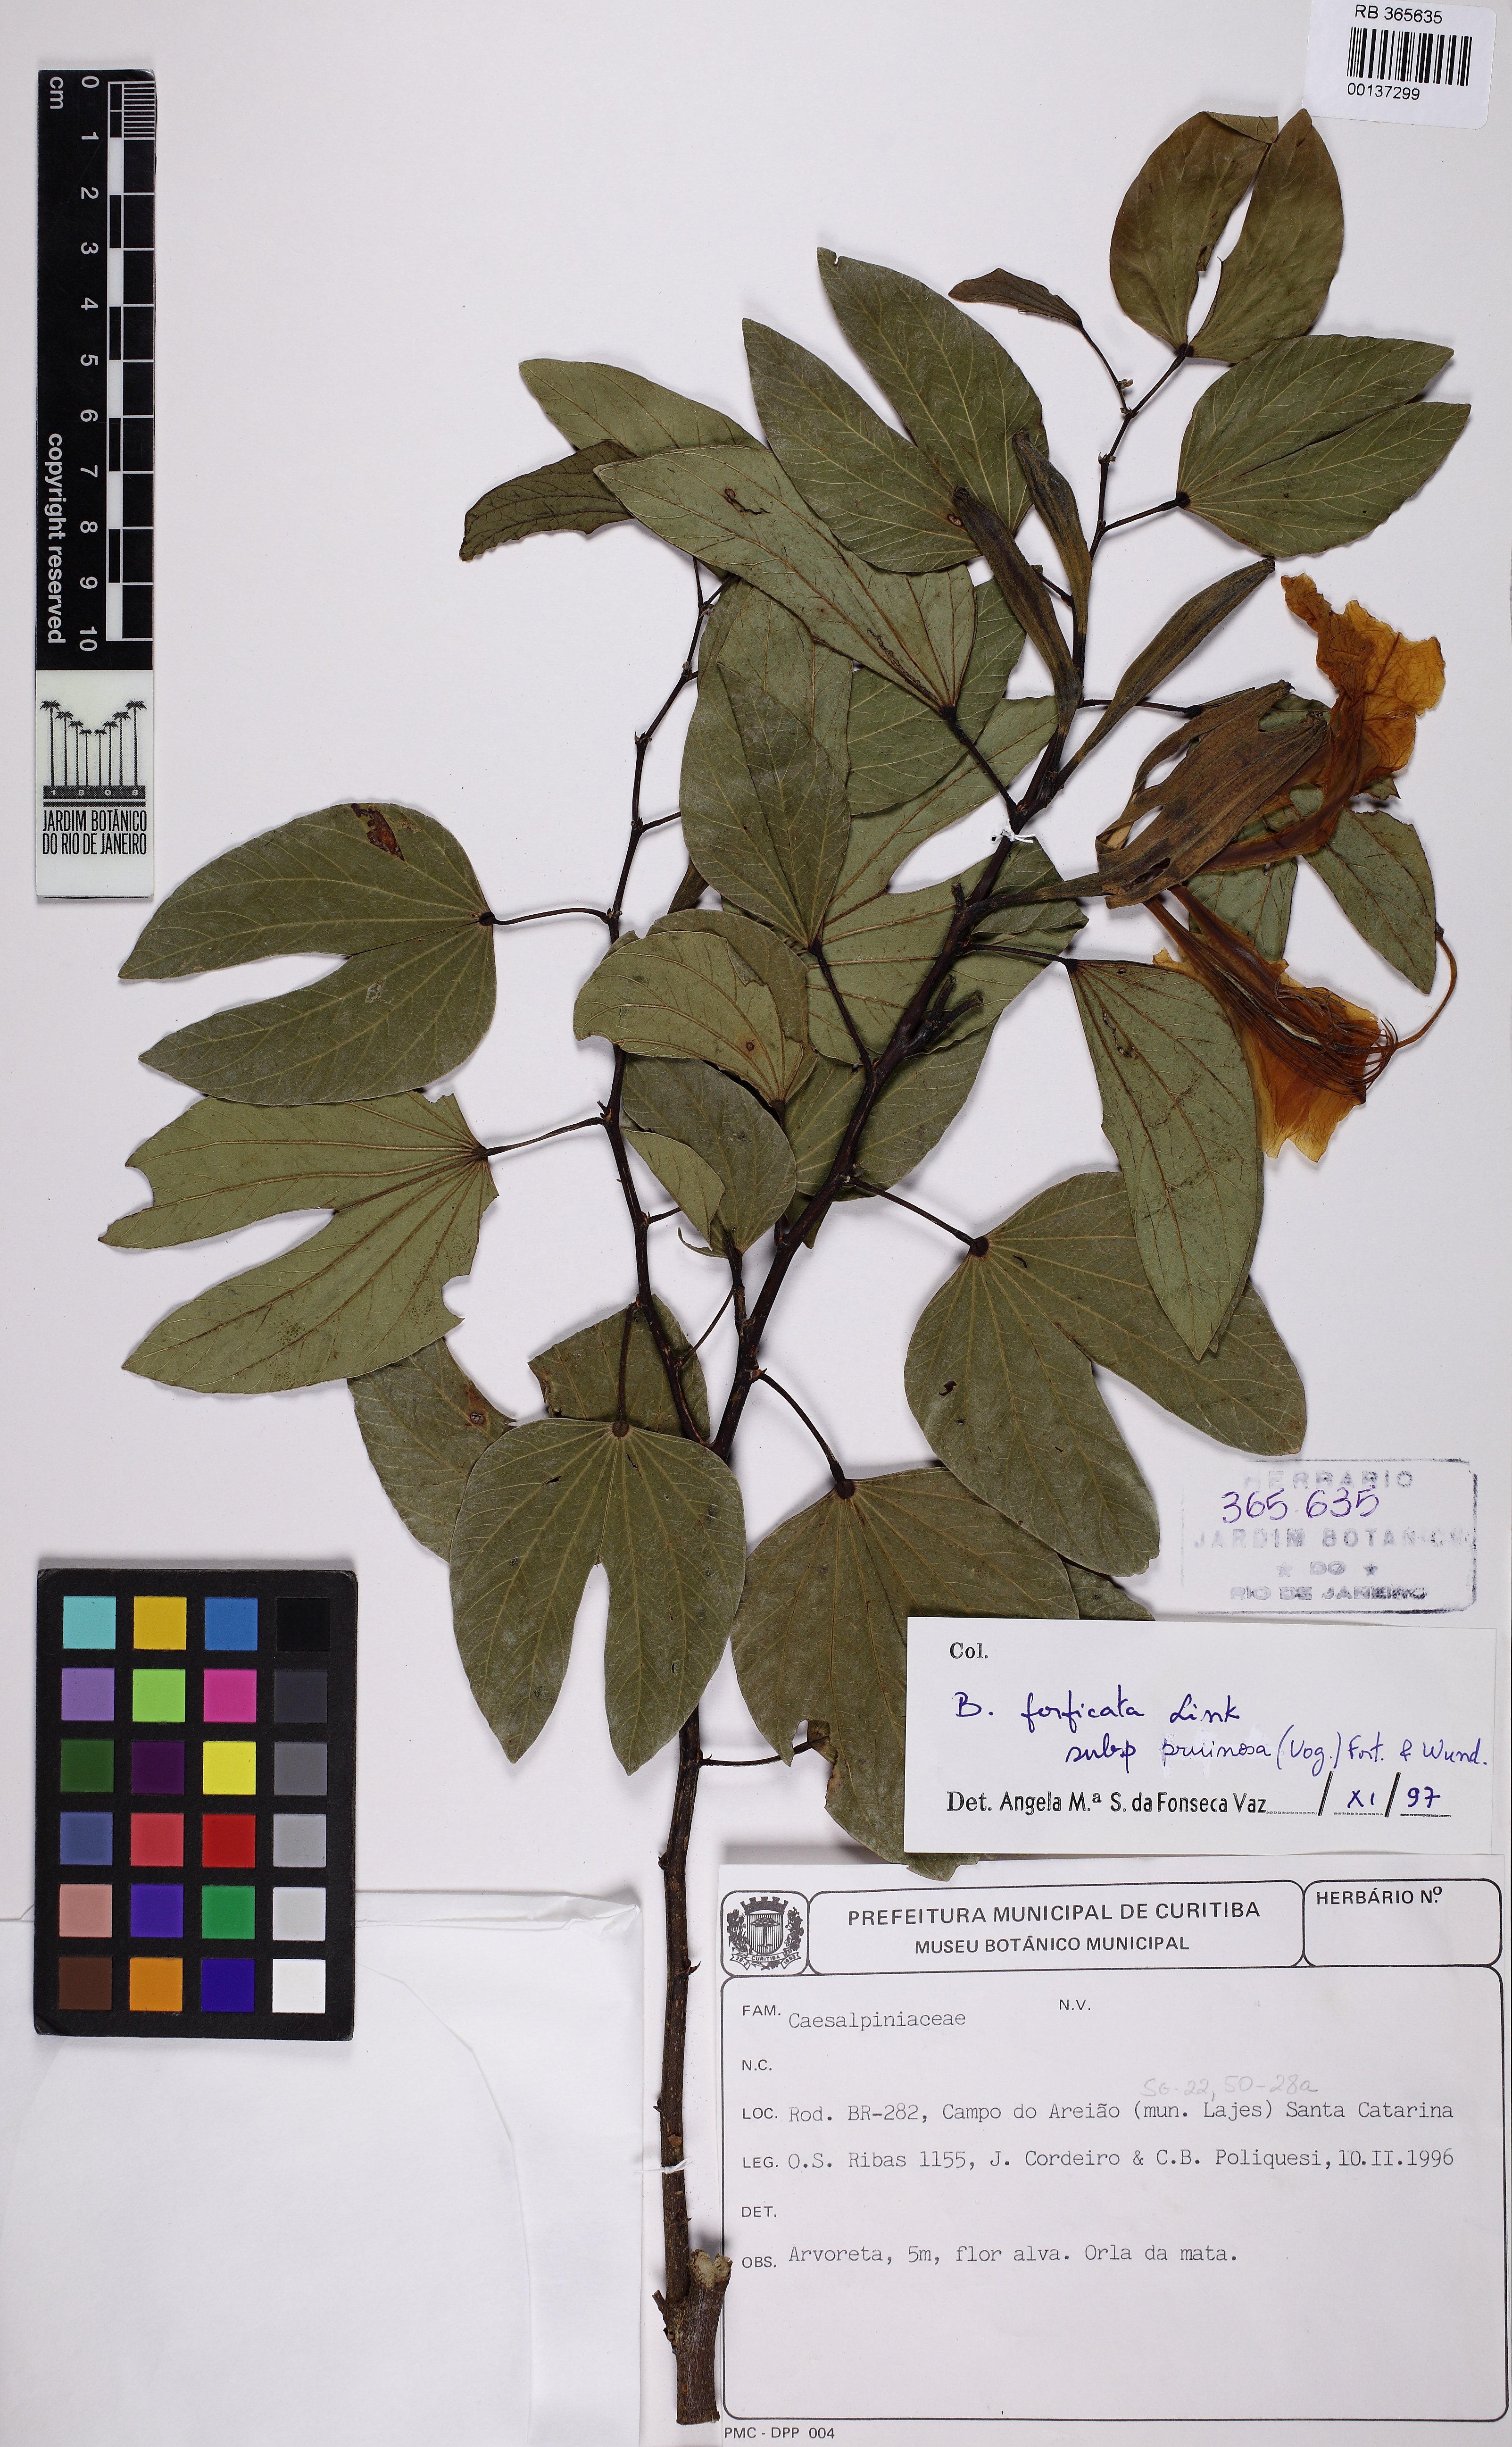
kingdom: Plantae
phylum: Tracheophyta
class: Magnoliopsida
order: Fabales
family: Fabaceae
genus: Bauhinia
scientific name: Bauhinia forficata
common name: Orchid tree
